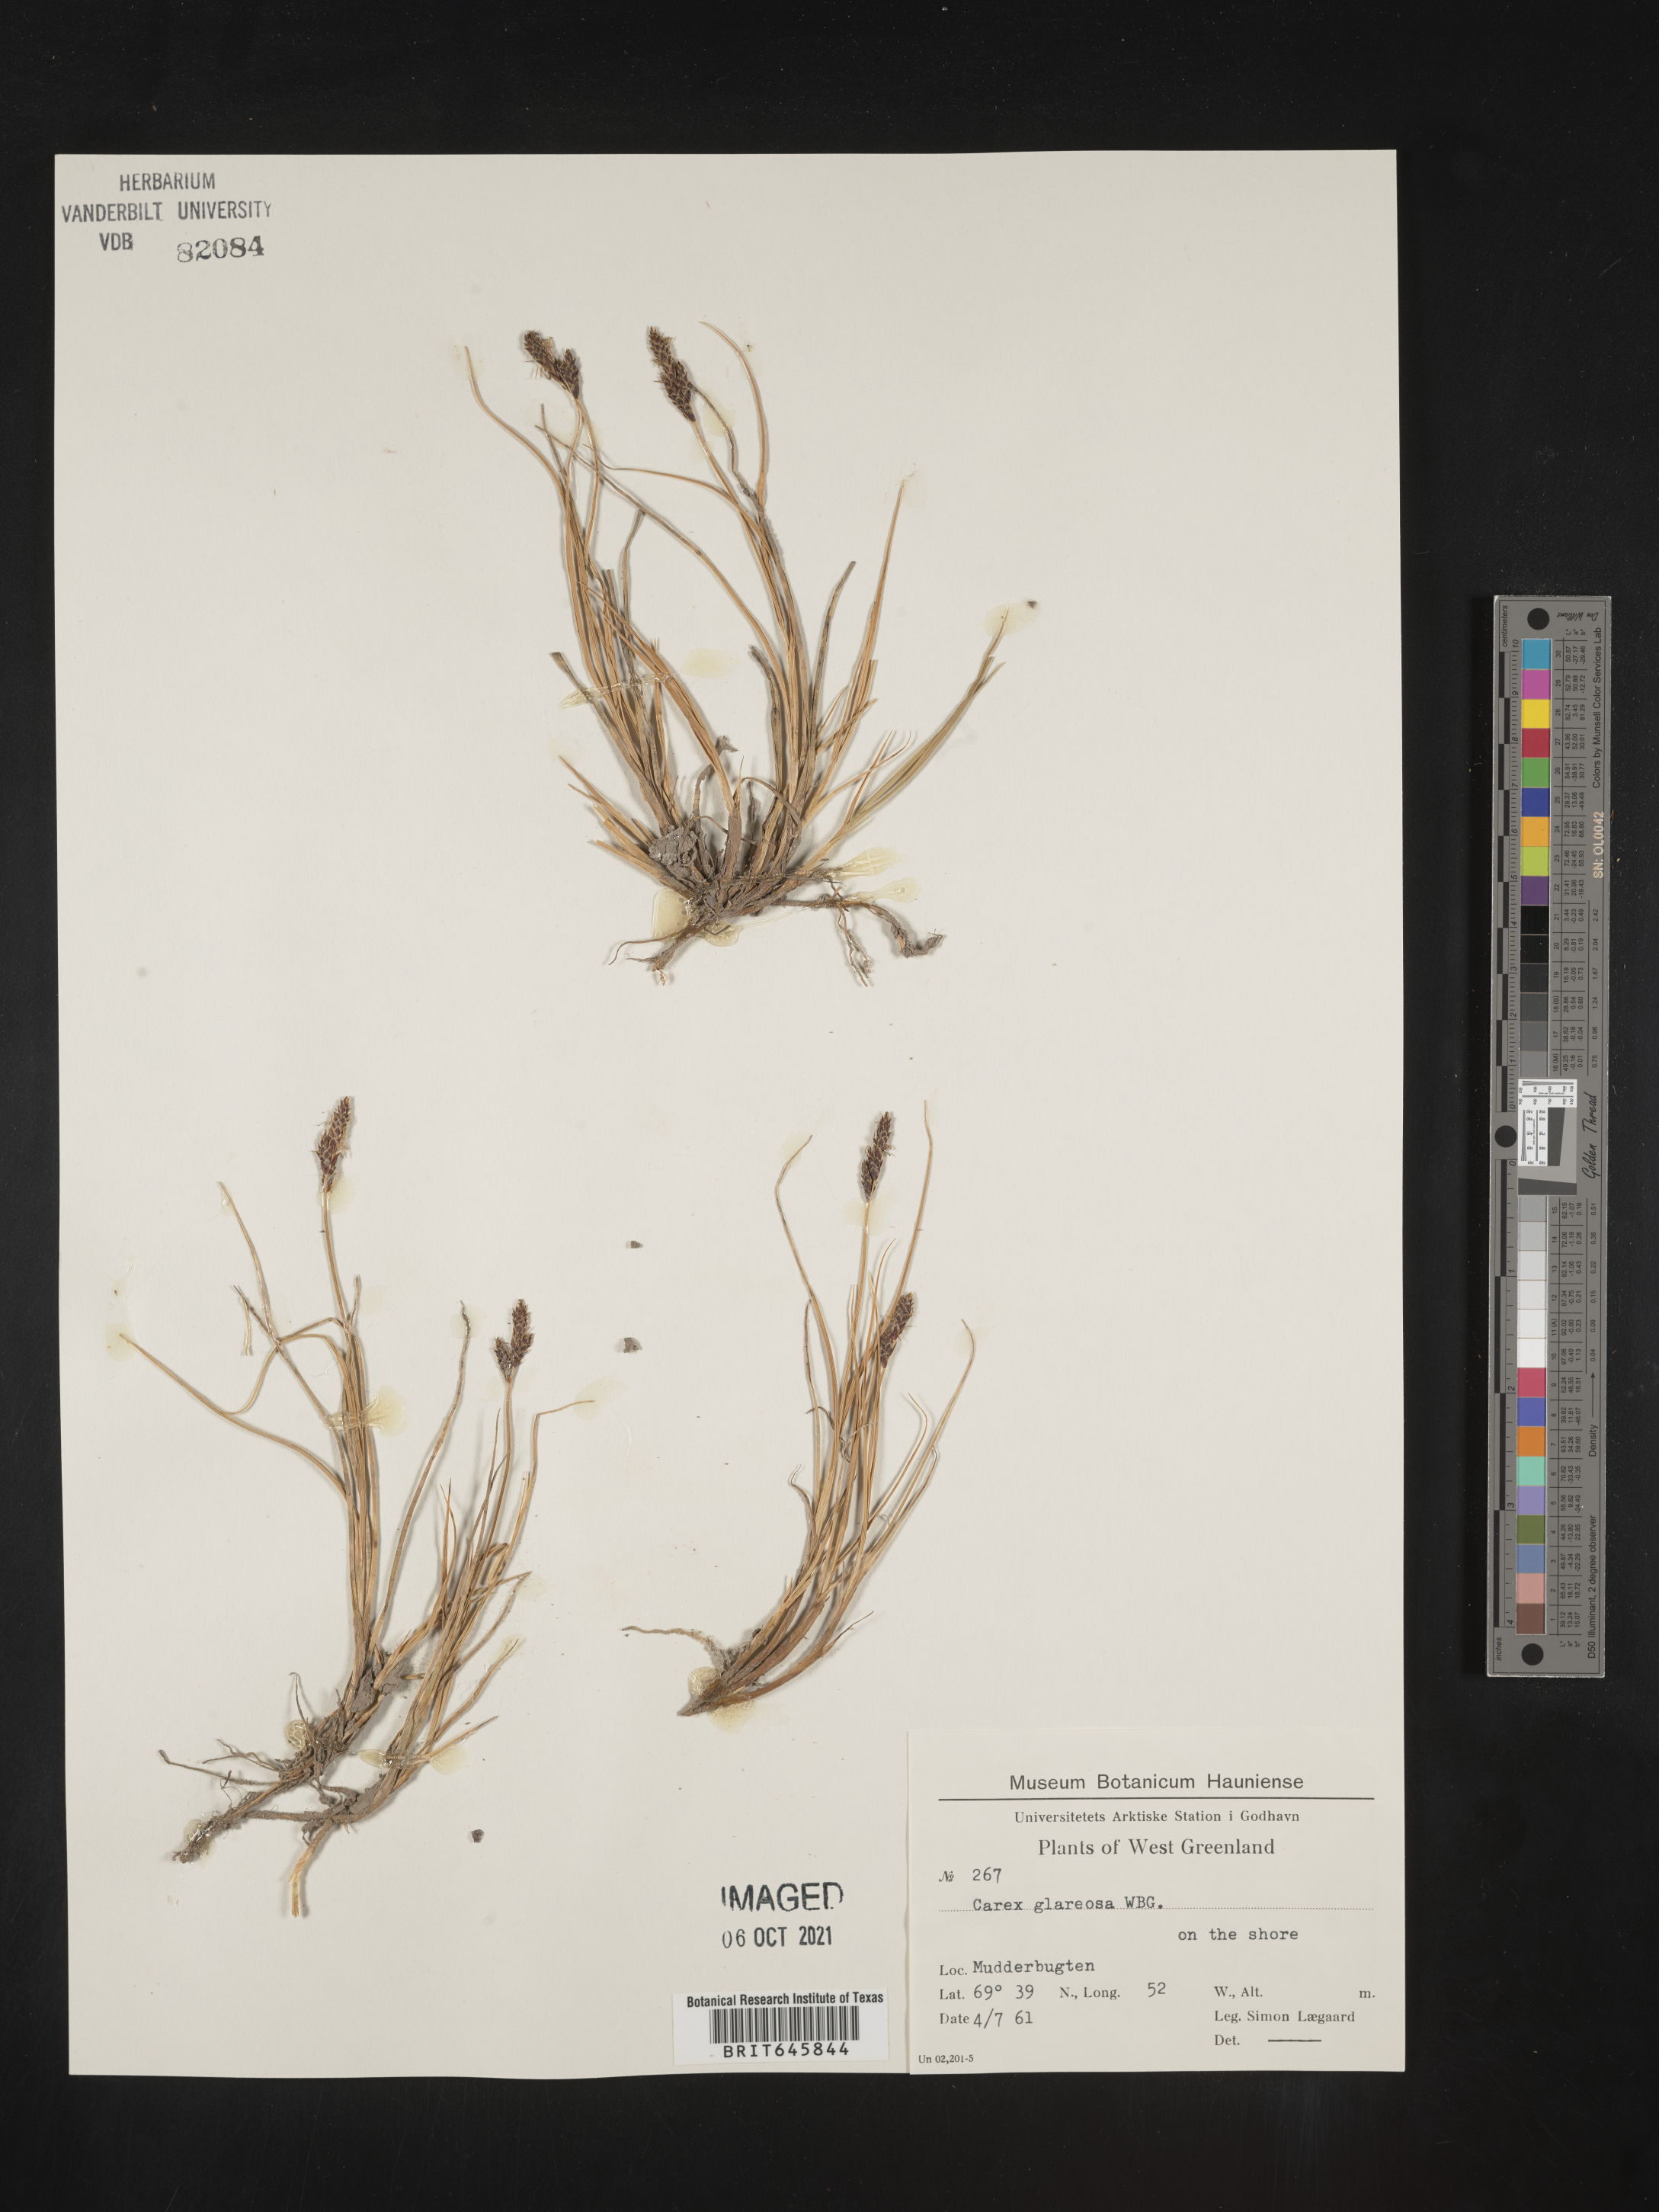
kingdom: Plantae
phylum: Tracheophyta
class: Liliopsida
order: Poales
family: Cyperaceae
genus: Carex
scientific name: Carex glareosa
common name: Clustered sedge
